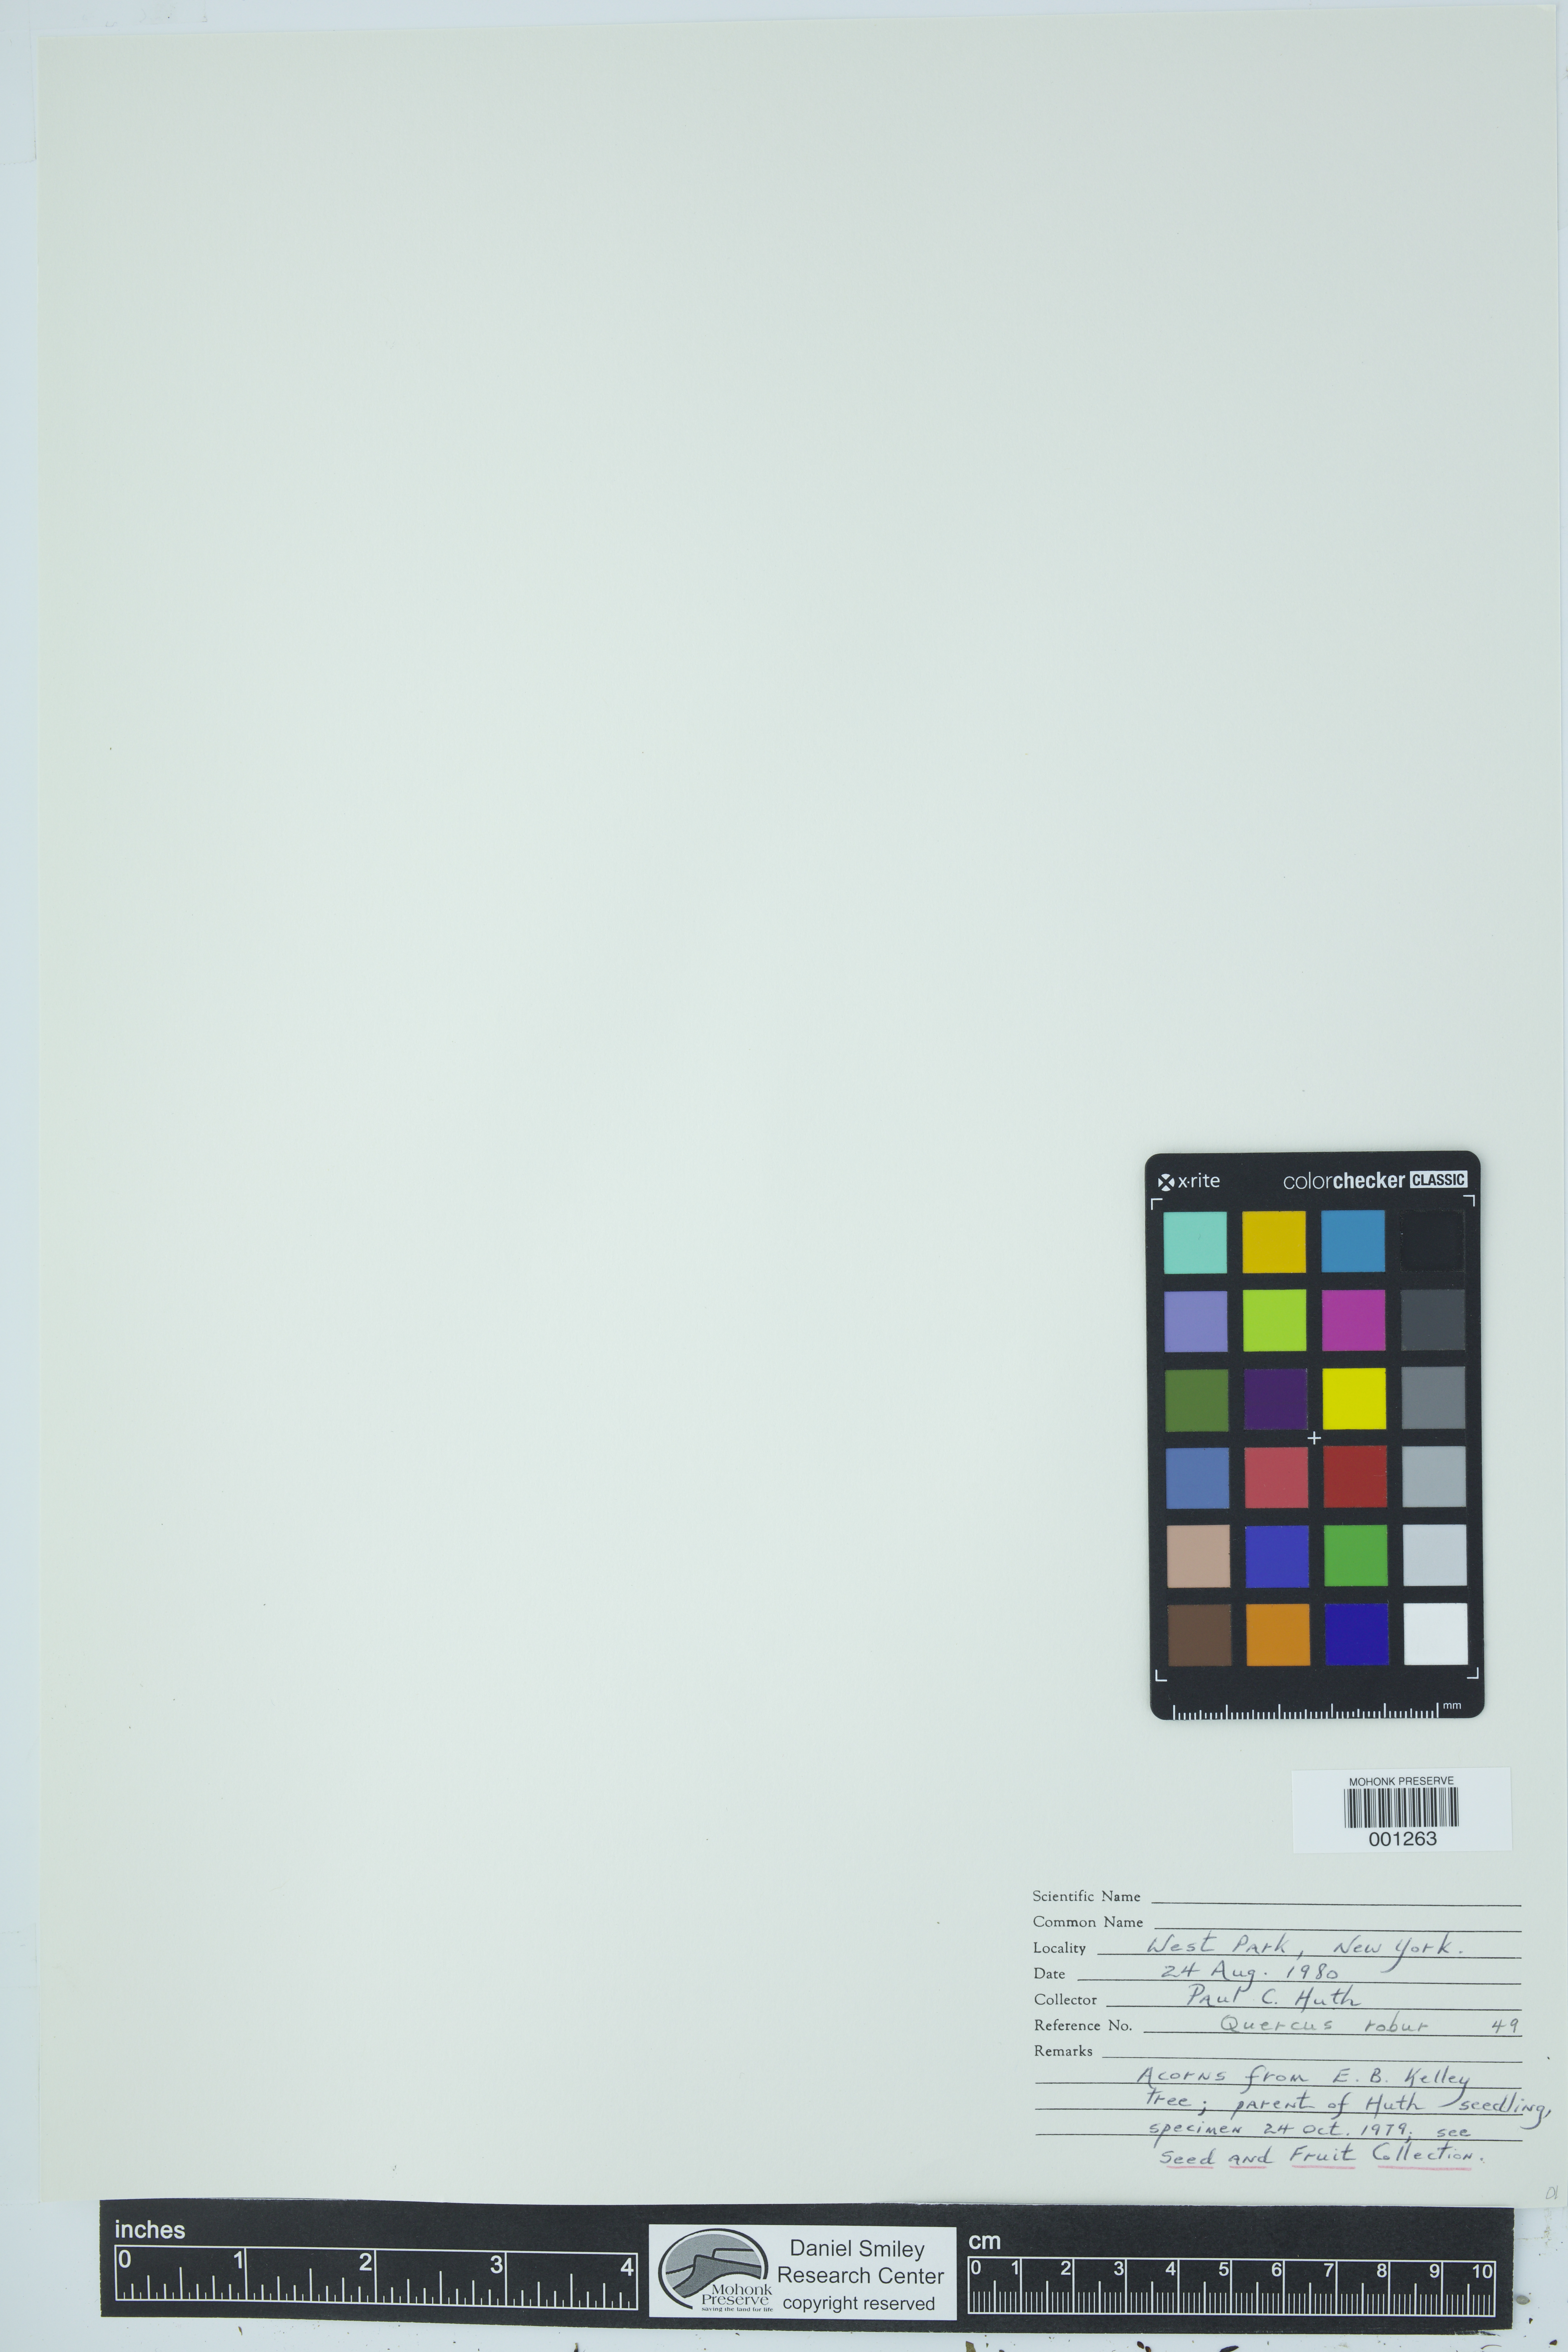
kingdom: Plantae
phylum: Tracheophyta
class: Magnoliopsida
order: Fagales
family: Fagaceae
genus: Quercus
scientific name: Quercus robur
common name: Pedunculate oak
